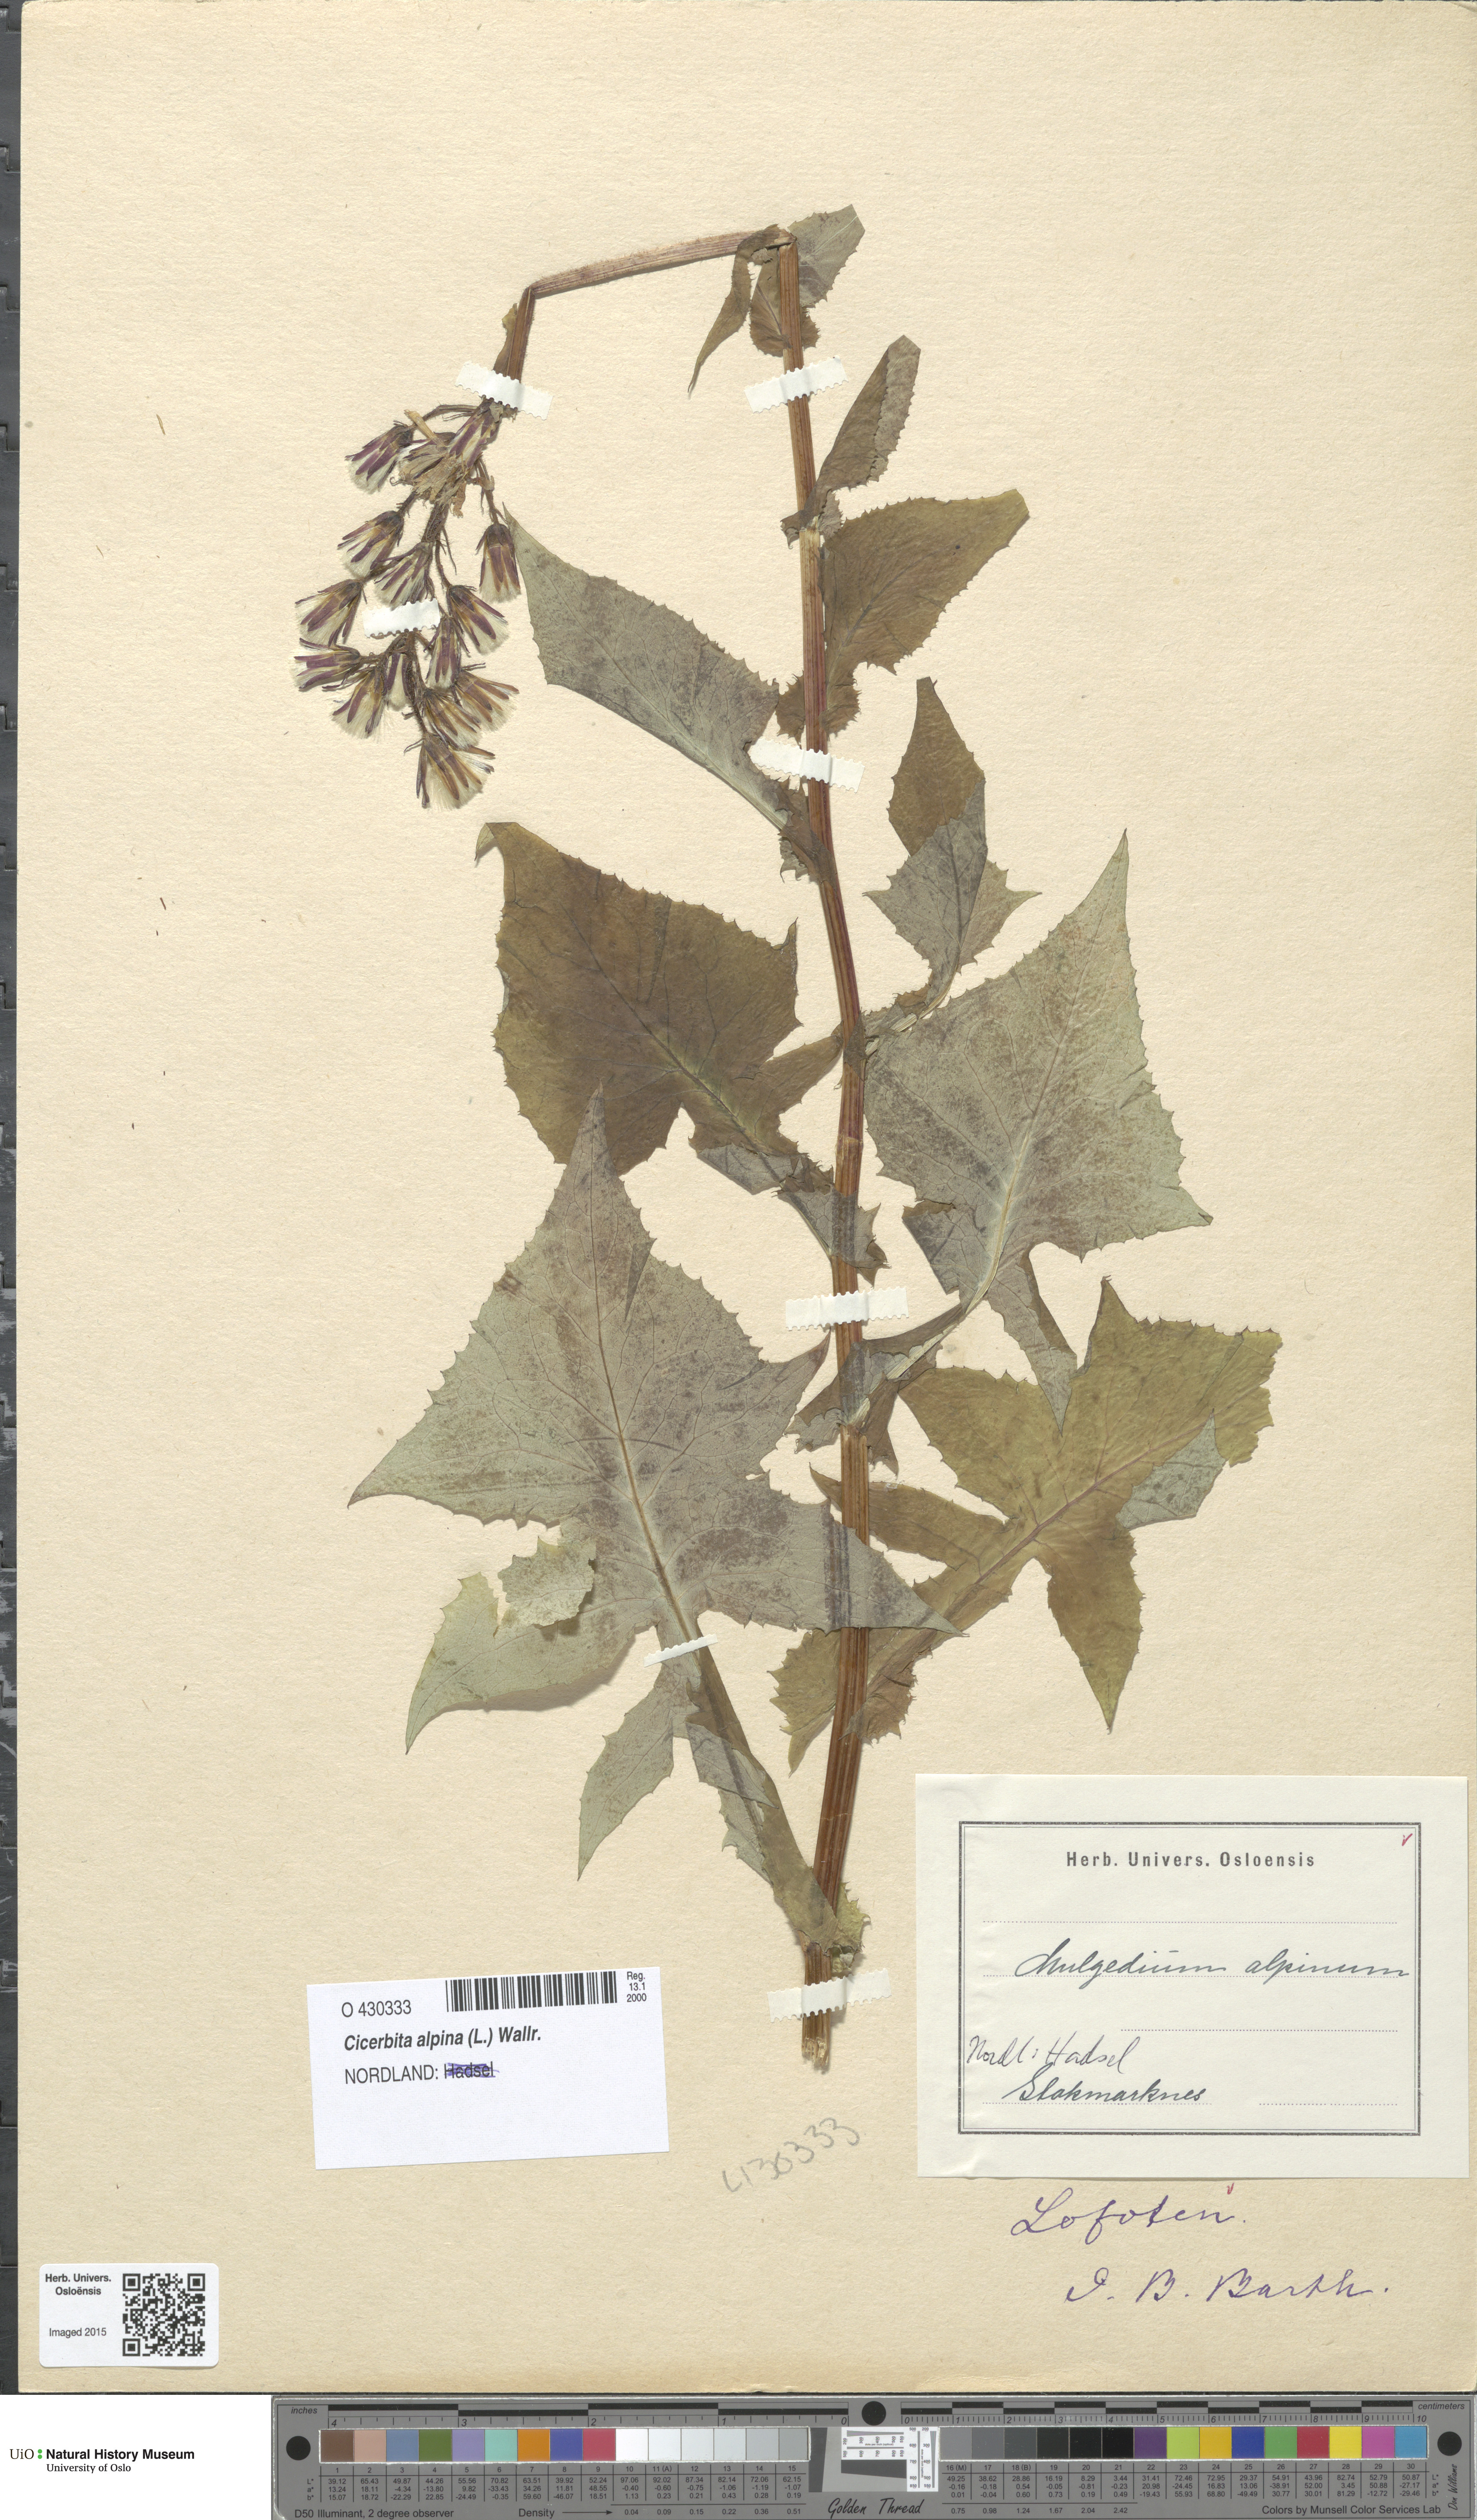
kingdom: Plantae
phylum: Tracheophyta
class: Magnoliopsida
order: Asterales
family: Asteraceae
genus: Cicerbita
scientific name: Cicerbita alpina
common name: Alpine blue-sow-thistle
